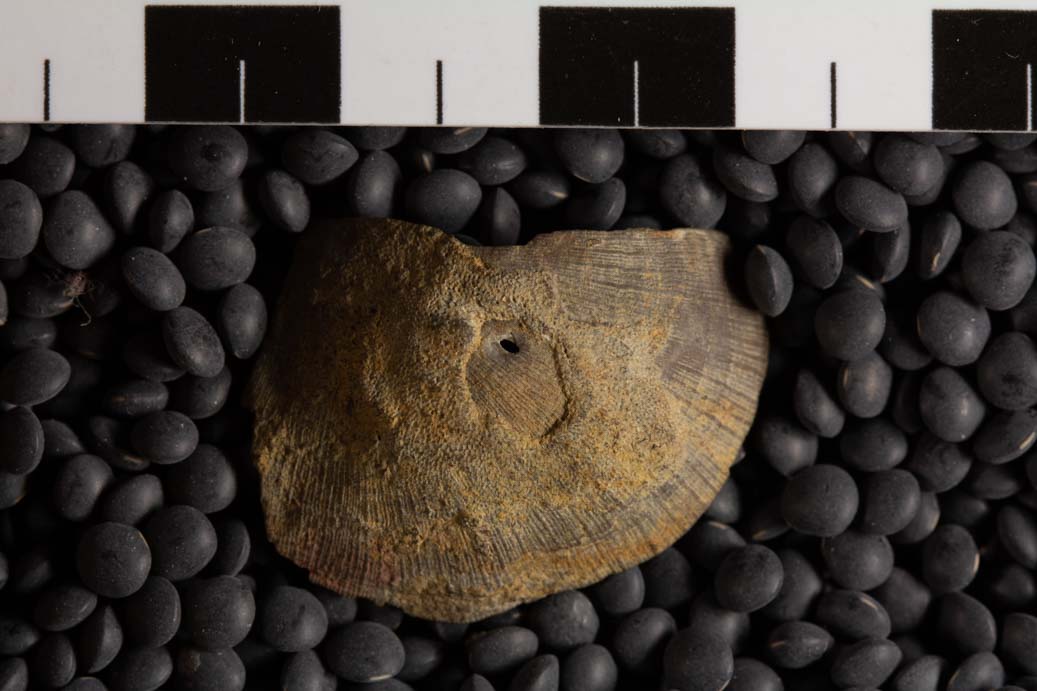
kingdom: Animalia
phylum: Brachiopoda
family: Strophomenidae
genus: Strophomena
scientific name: Strophomena
